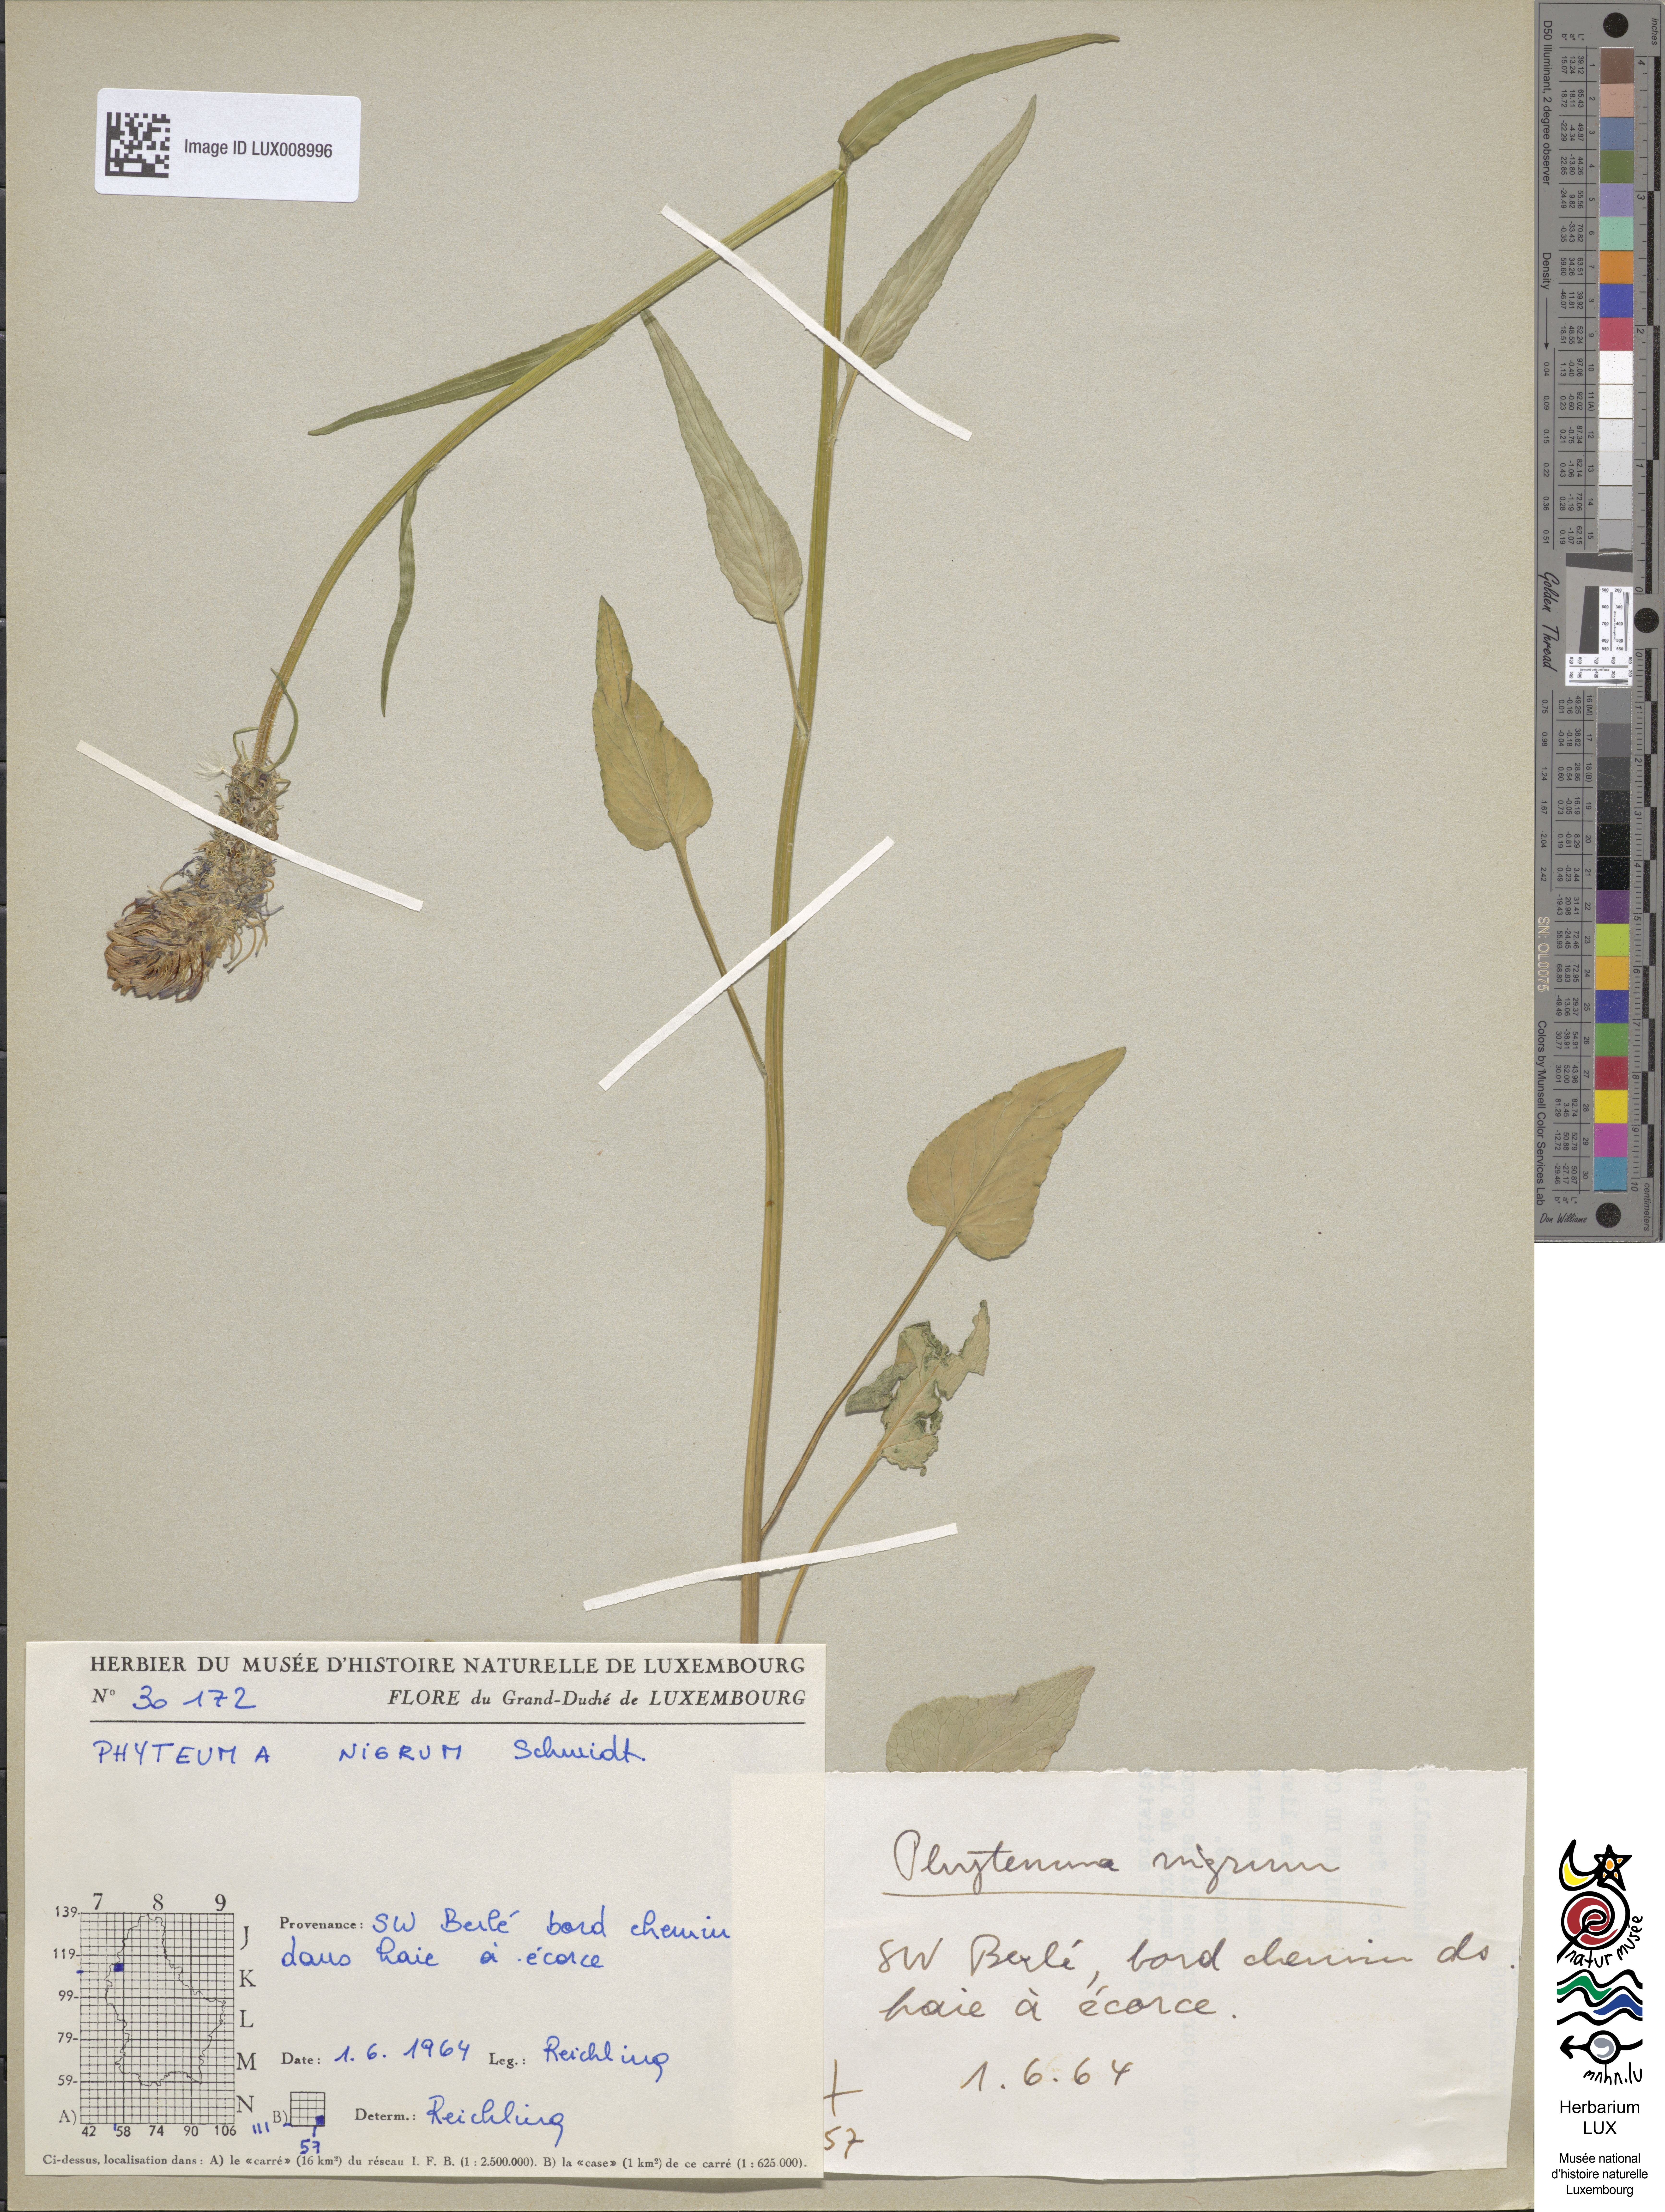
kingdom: Plantae
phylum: Tracheophyta
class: Magnoliopsida
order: Asterales
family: Campanulaceae
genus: Phyteuma
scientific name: Phyteuma nigrum
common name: Black rampion
